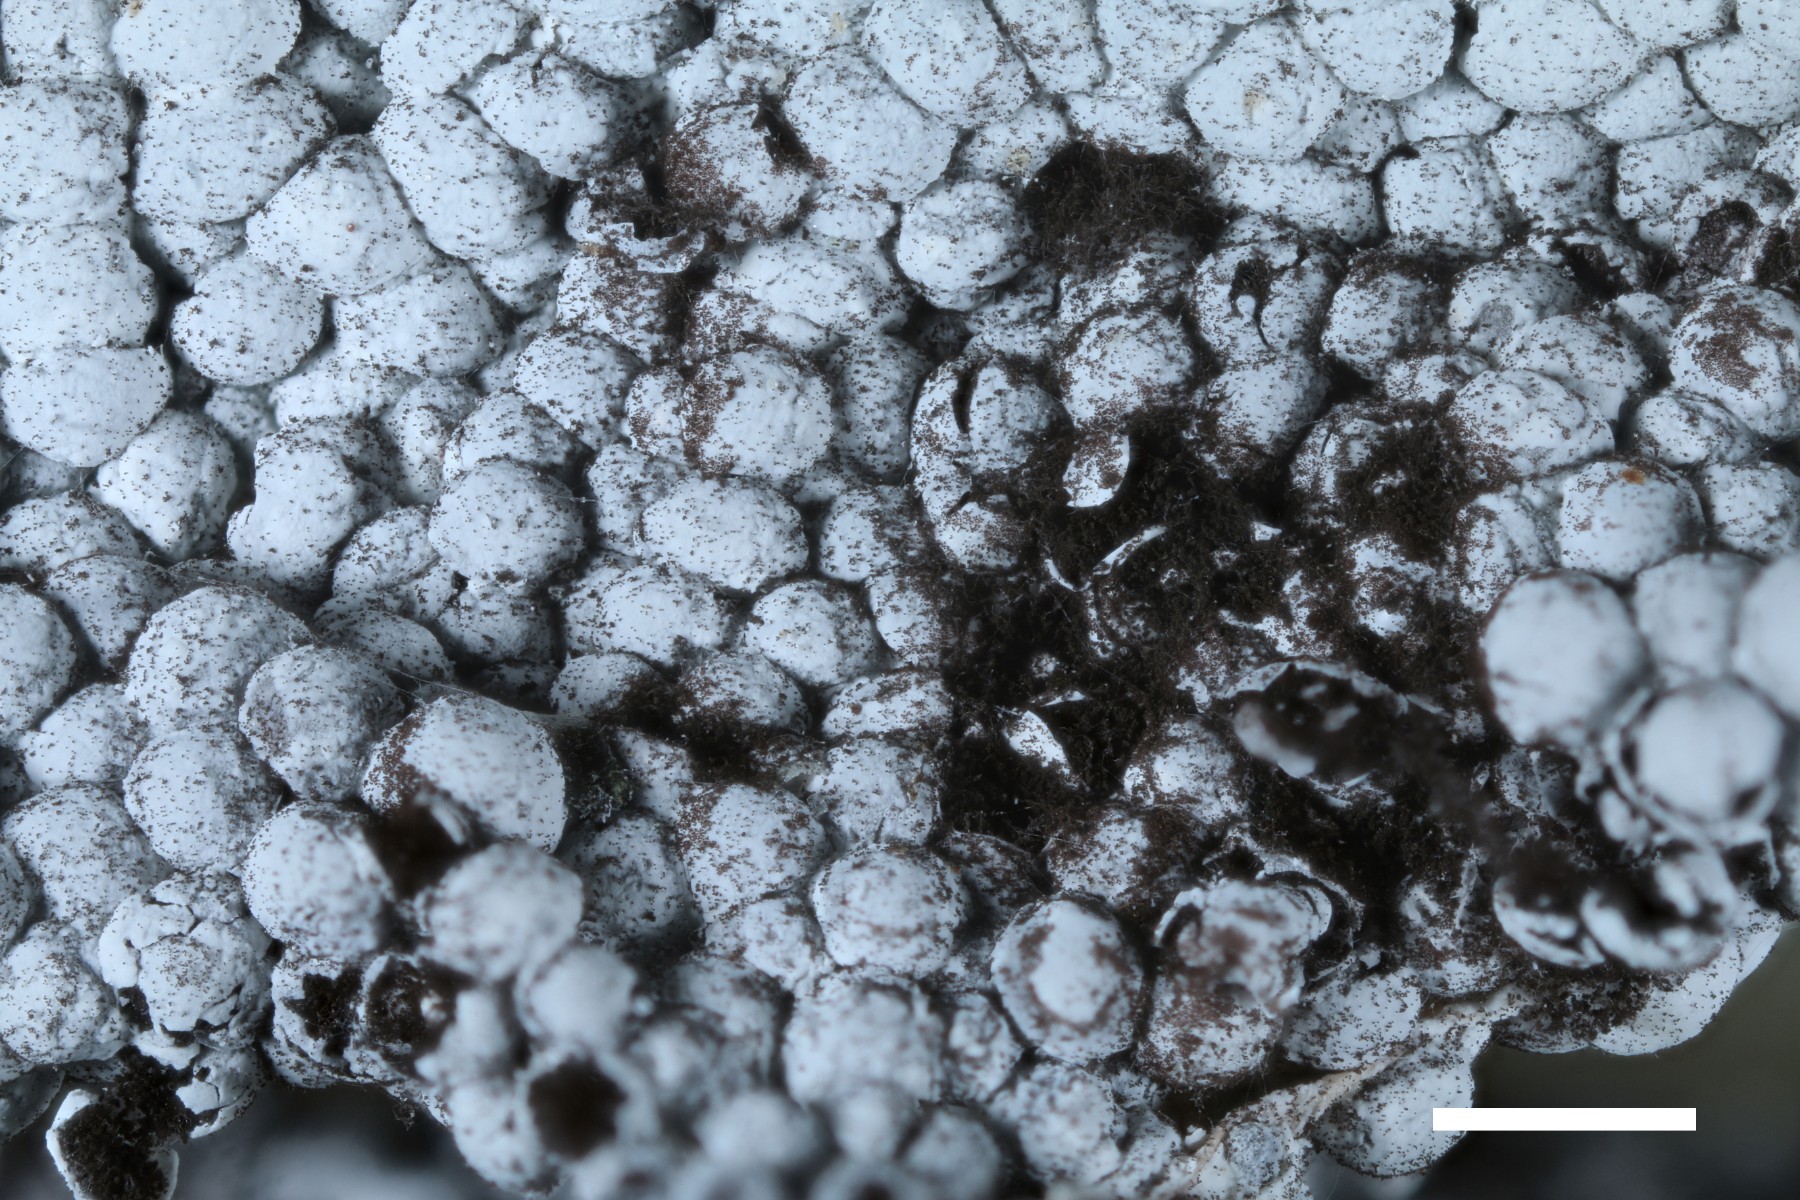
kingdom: Protozoa
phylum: Mycetozoa
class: Myxomycetes
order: Physarales
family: Didymiaceae
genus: Diderma
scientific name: Diderma spumarioides
